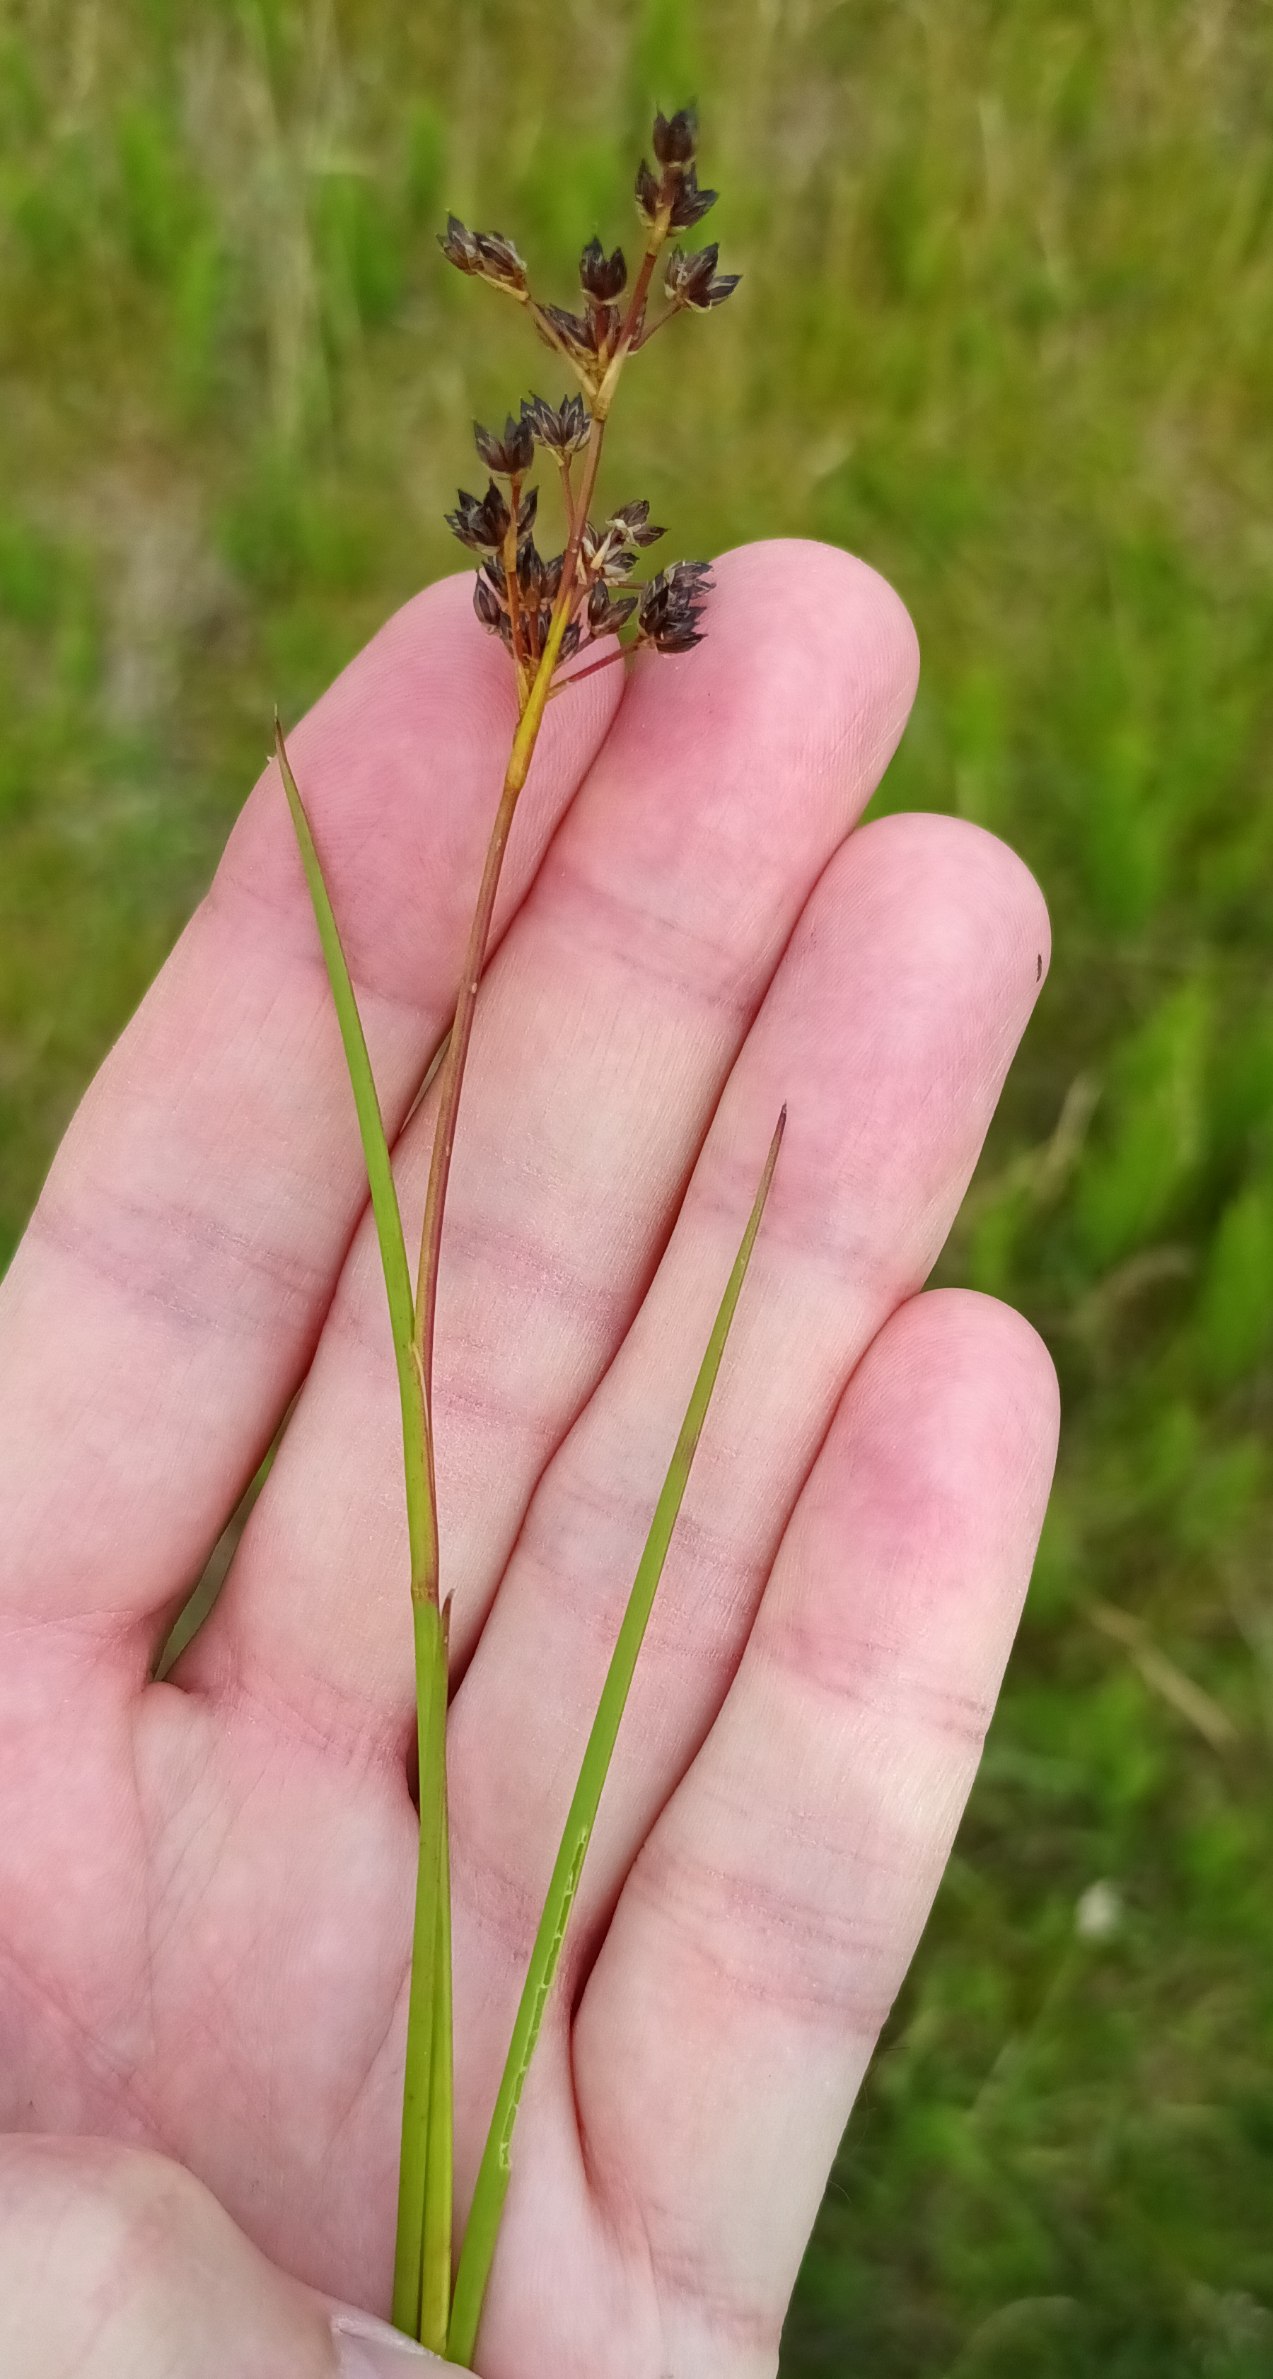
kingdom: Plantae
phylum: Tracheophyta
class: Liliopsida
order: Poales
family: Juncaceae
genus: Juncus
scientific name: Juncus articulatus
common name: Glanskapslet siv
